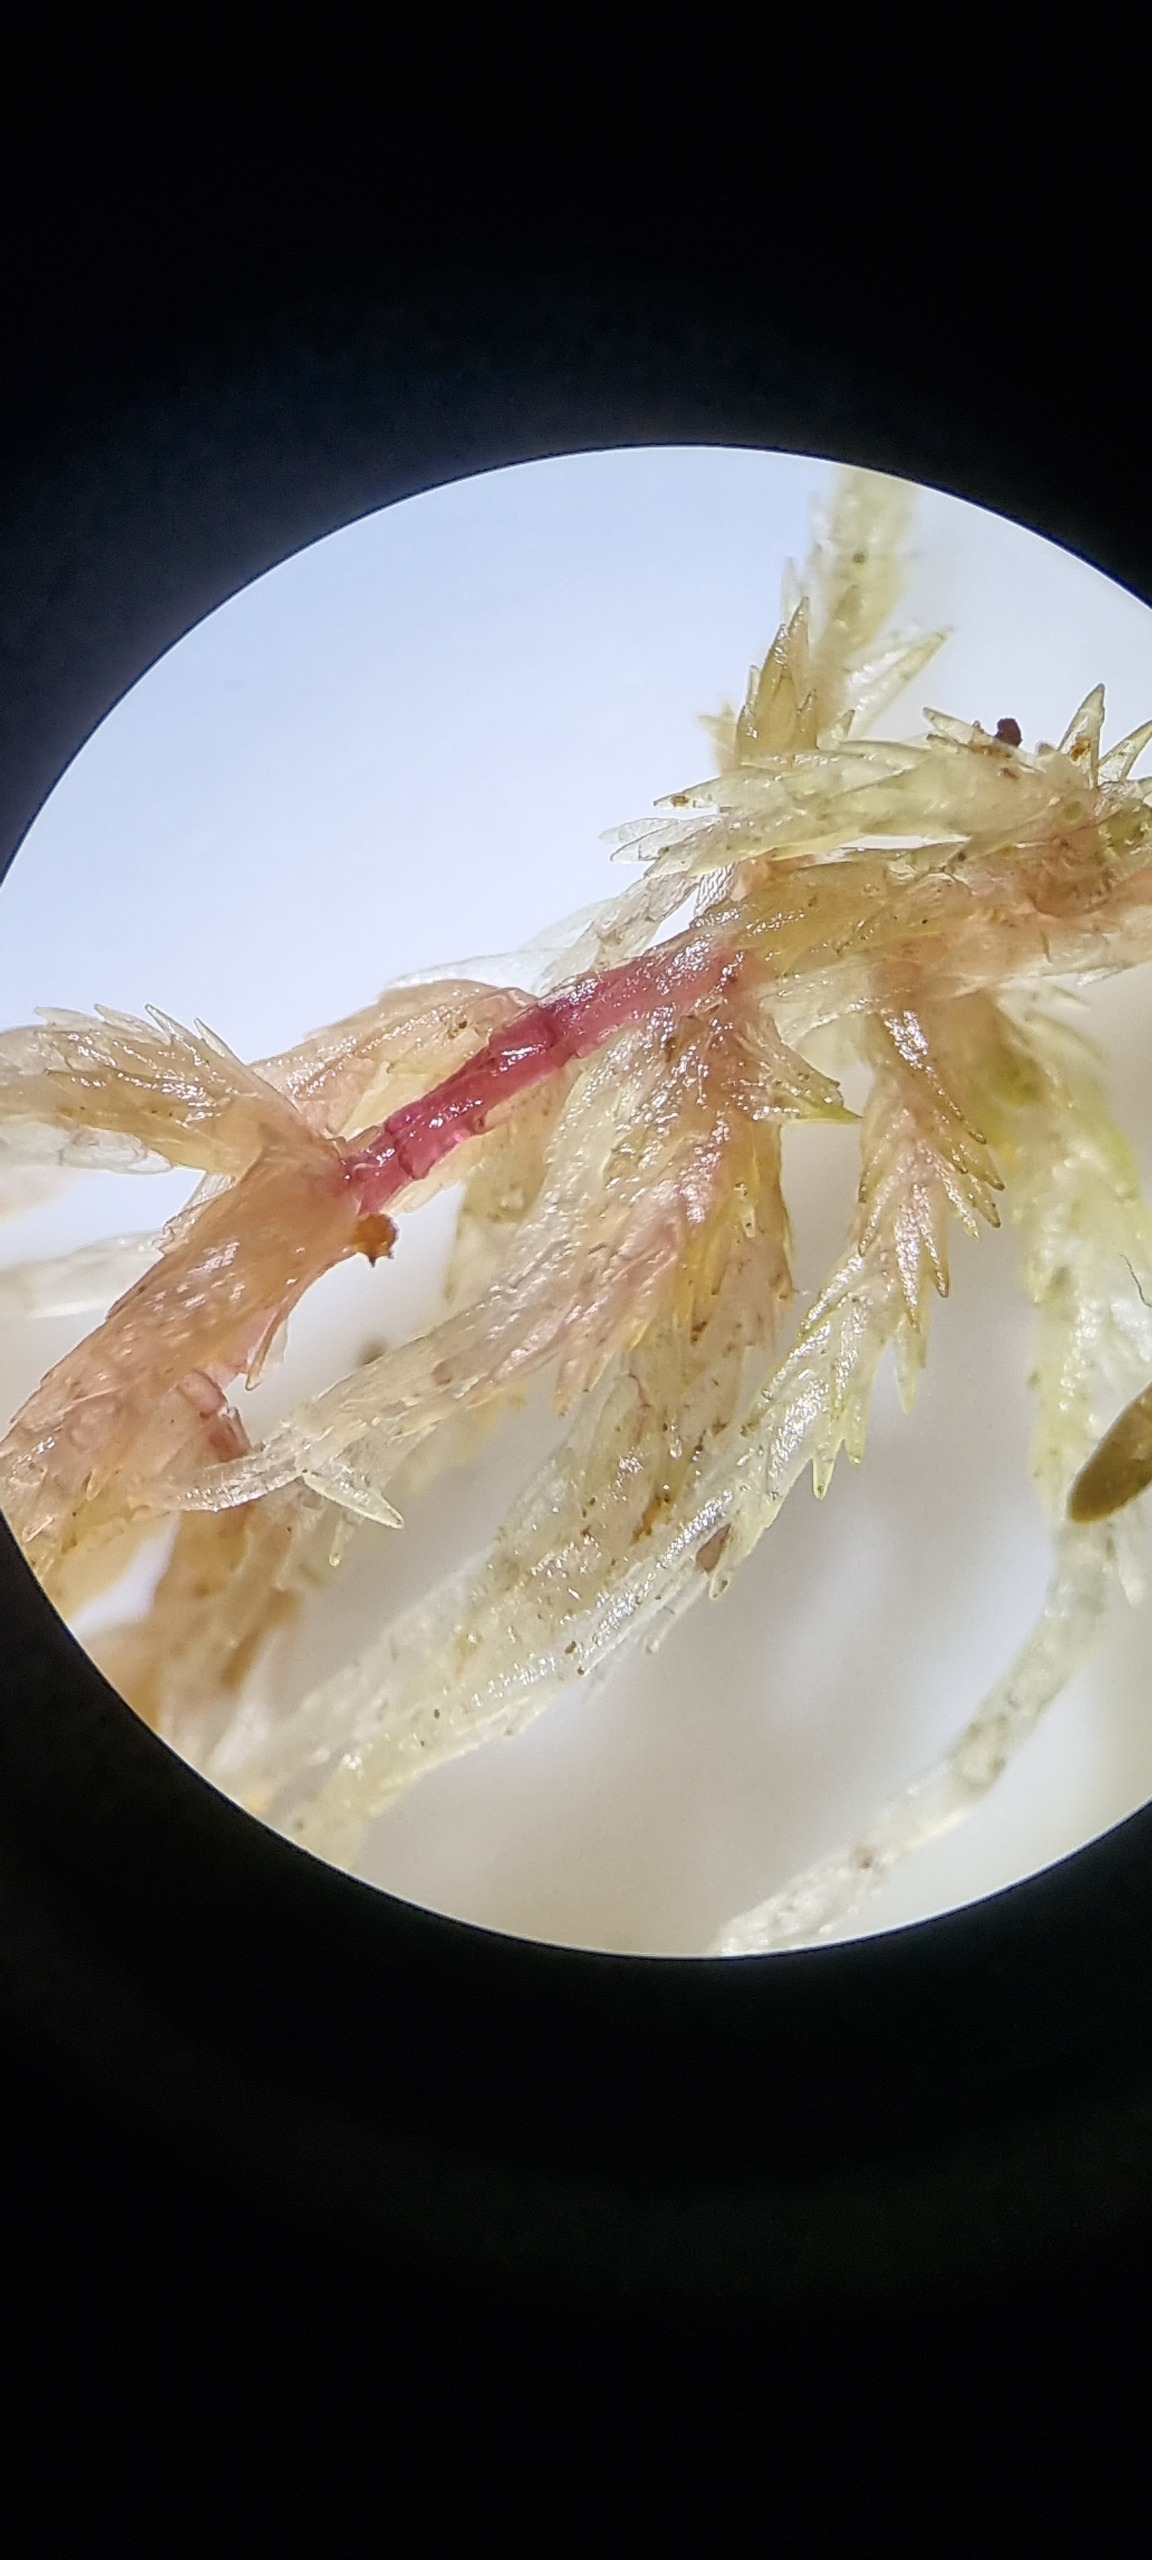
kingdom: Plantae
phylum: Bryophyta
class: Sphagnopsida
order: Sphagnales
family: Sphagnaceae
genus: Sphagnum
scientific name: Sphagnum
